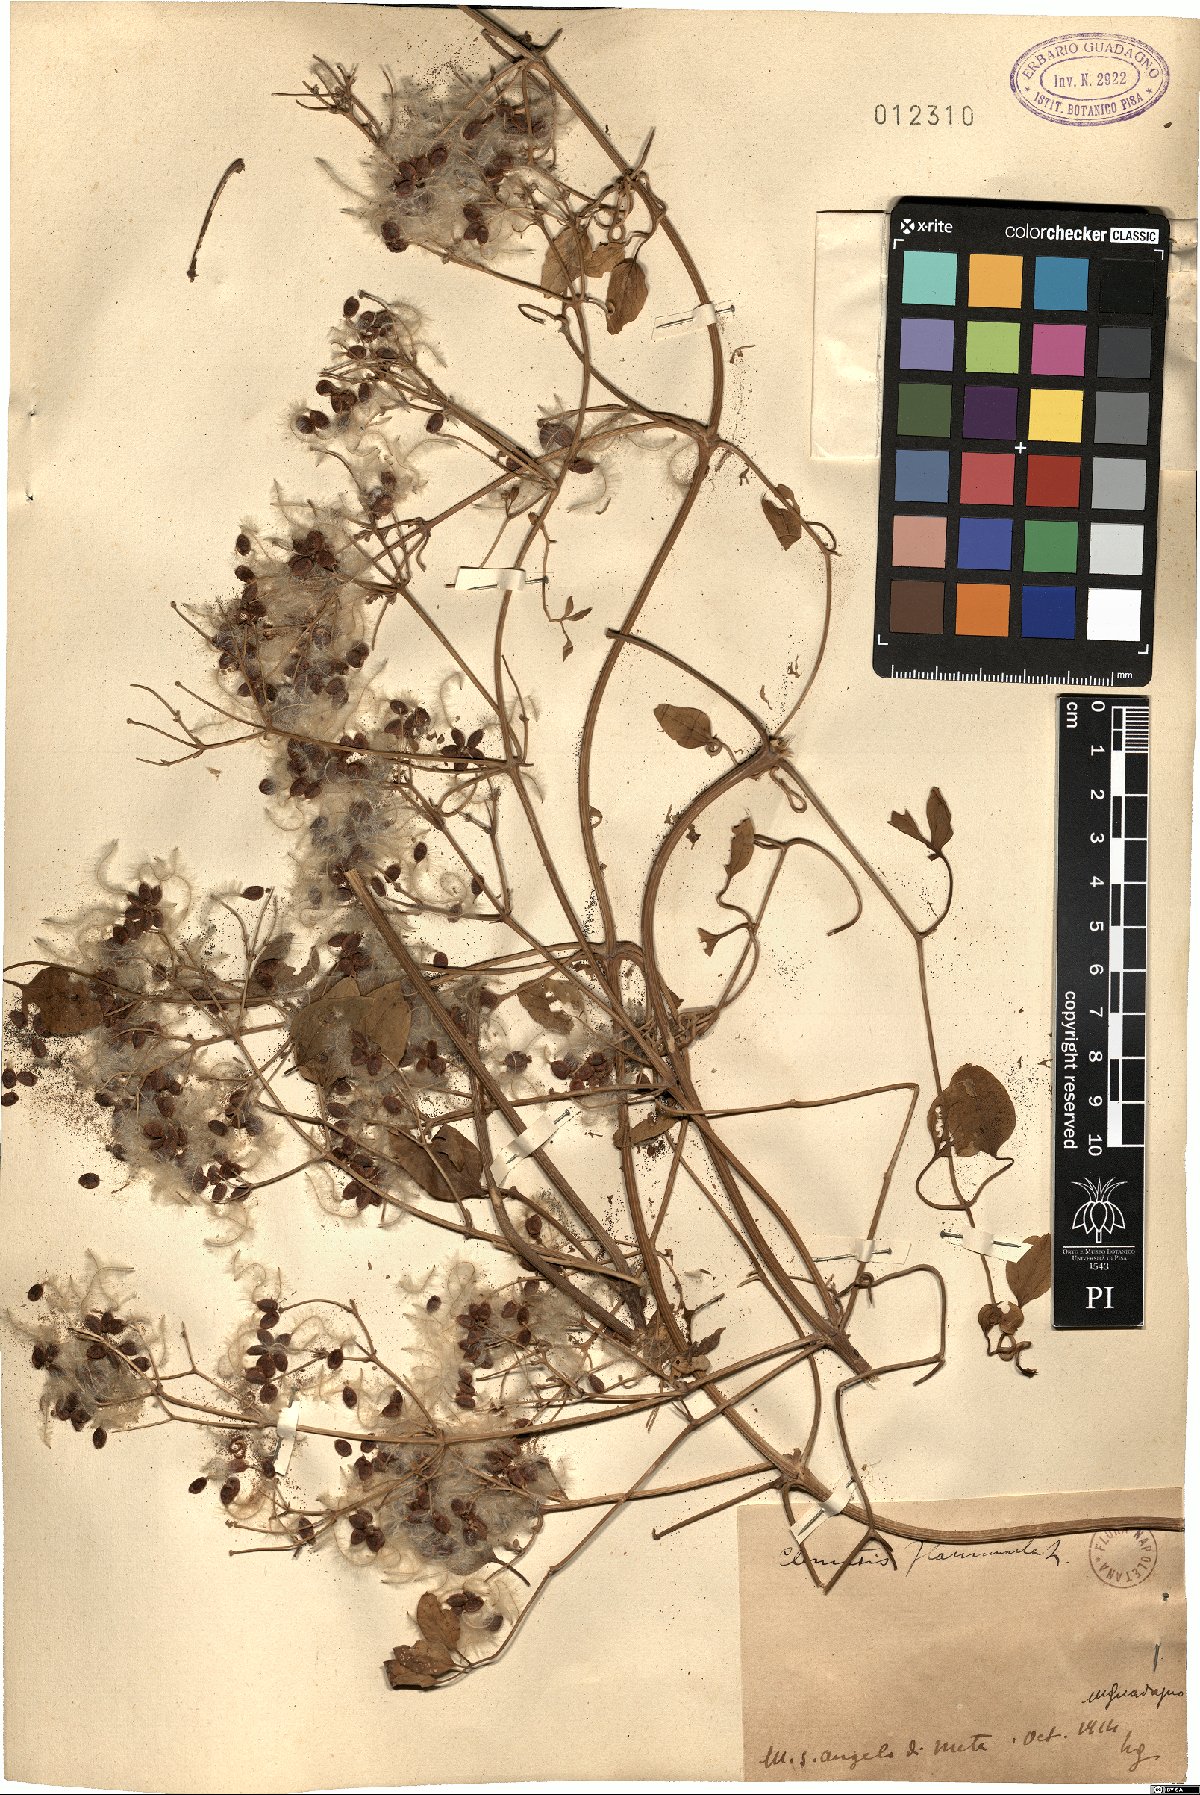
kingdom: Plantae
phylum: Tracheophyta
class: Magnoliopsida
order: Ranunculales
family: Ranunculaceae
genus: Clematis
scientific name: Clematis flammula
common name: Virgin's-bower
